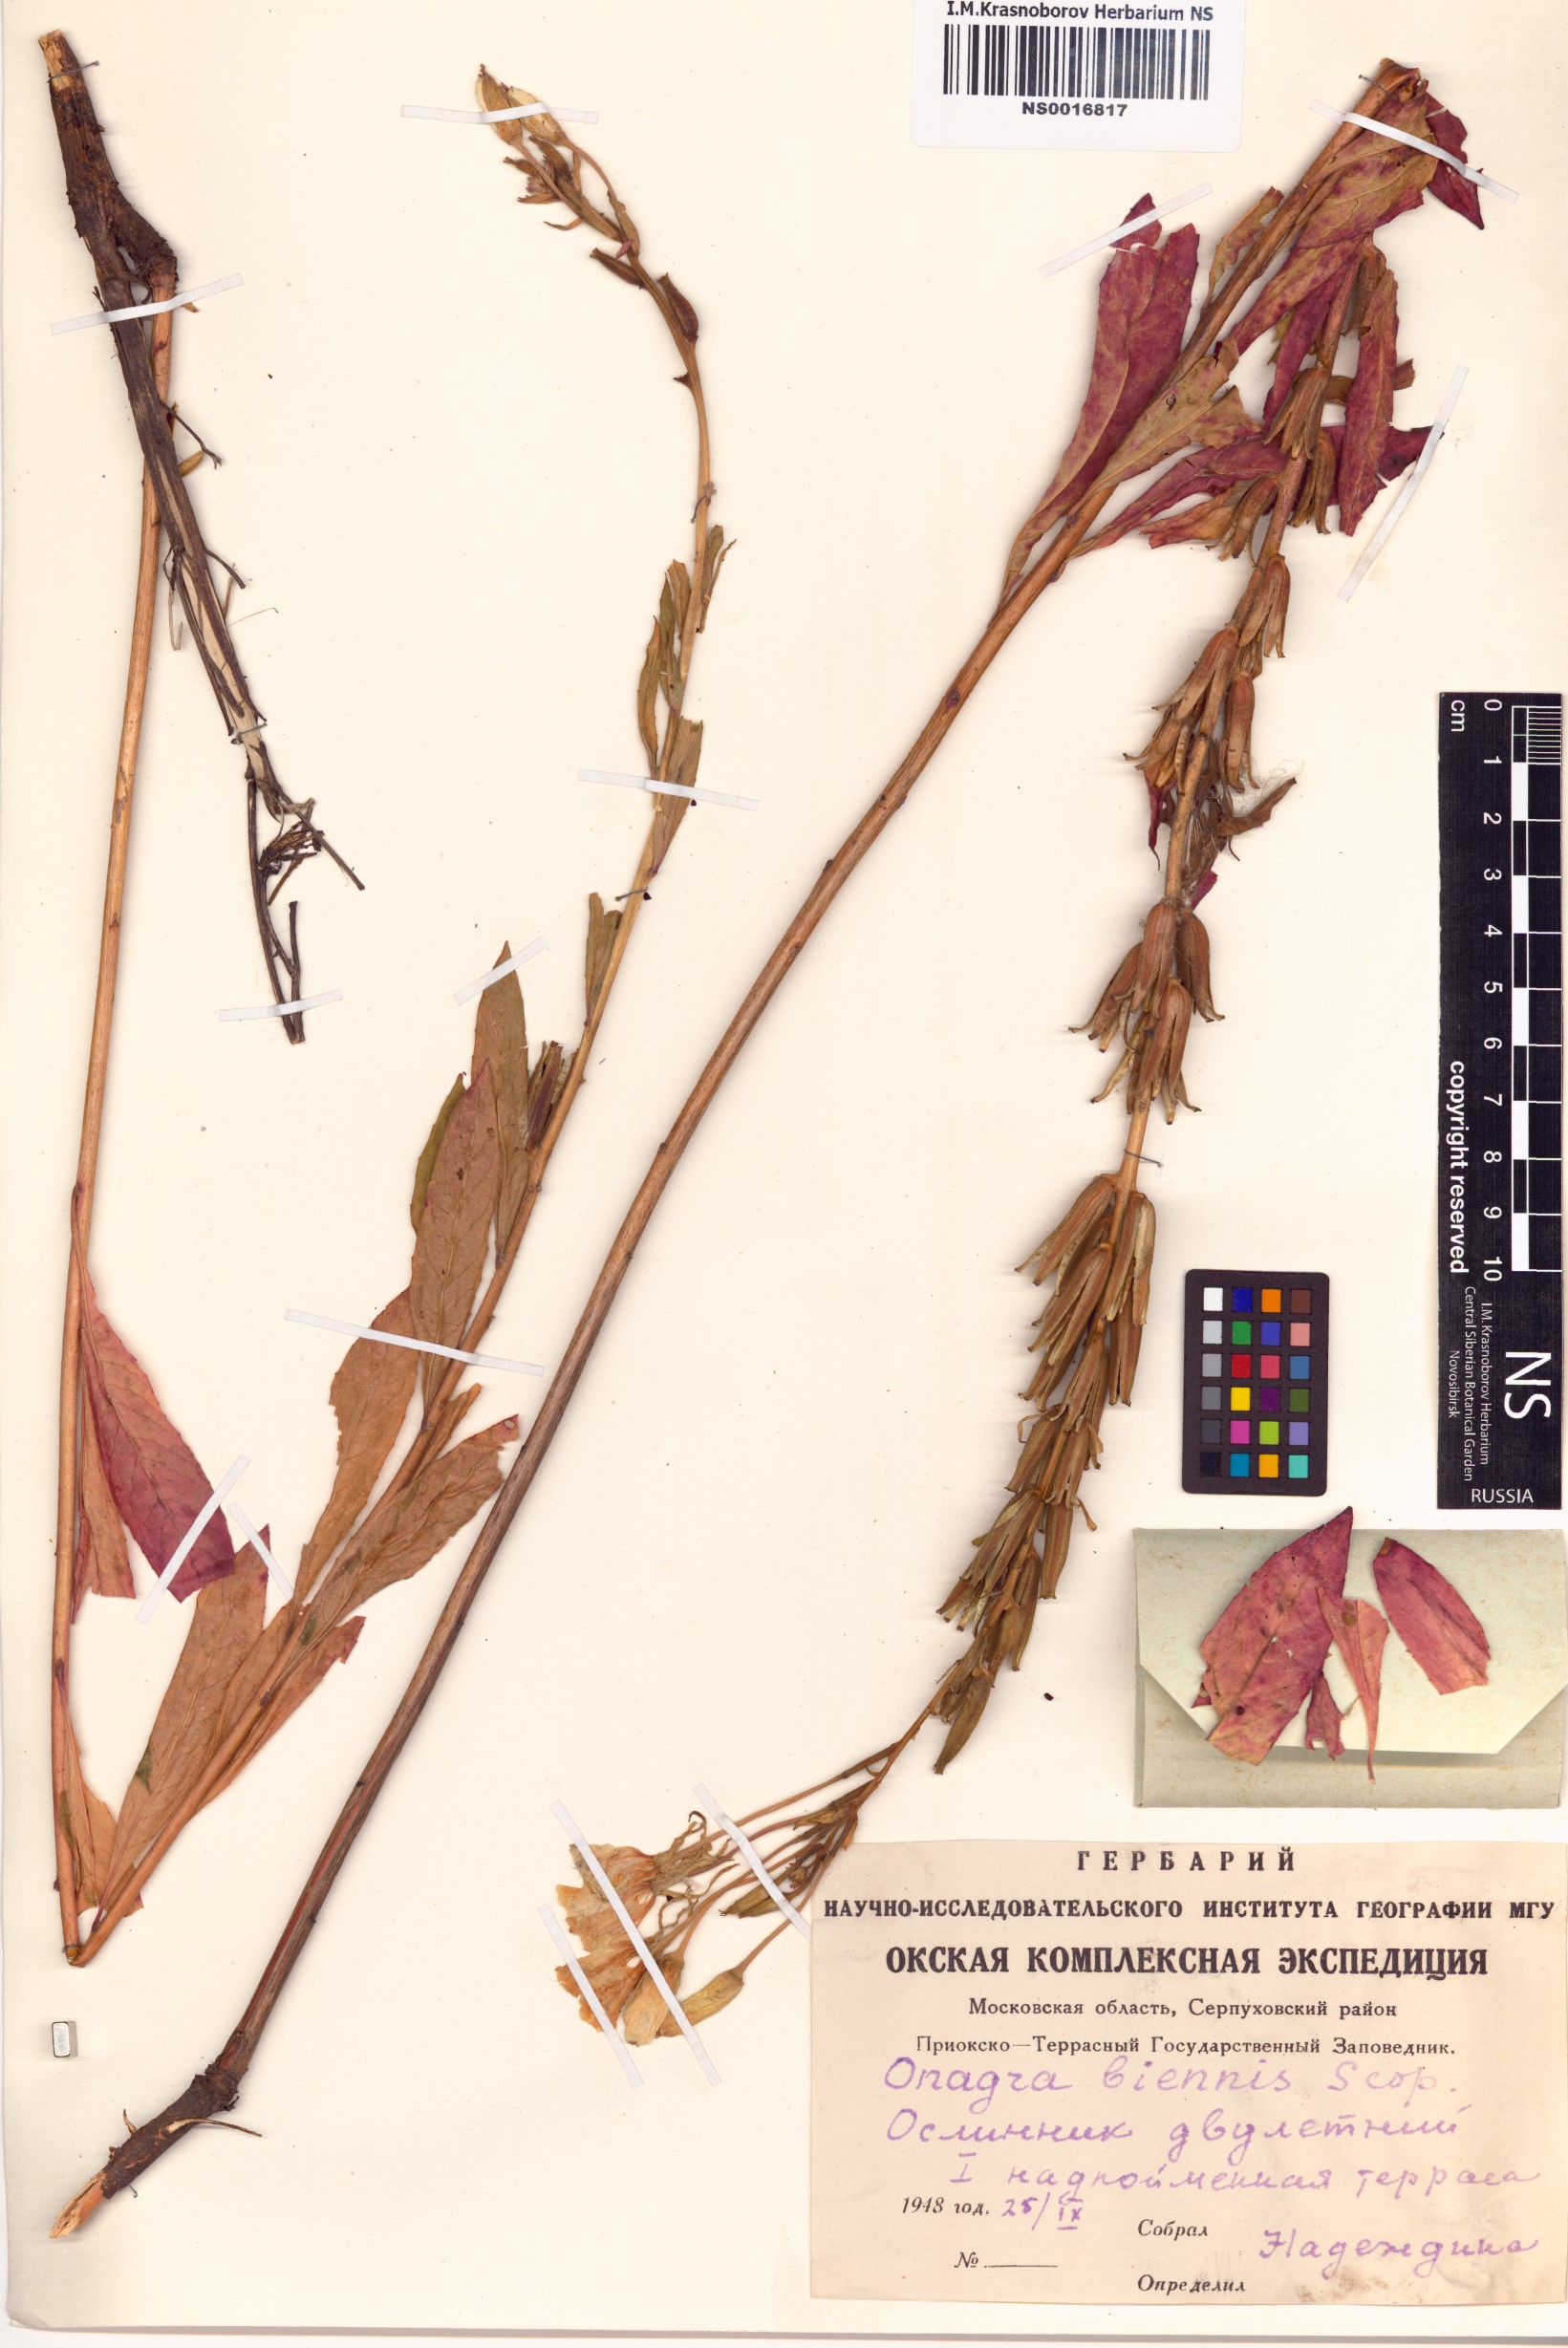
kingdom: Plantae
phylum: Tracheophyta
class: Magnoliopsida
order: Myrtales
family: Onagraceae
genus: Oenothera
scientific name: Oenothera biennis
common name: Common evening-primrose
